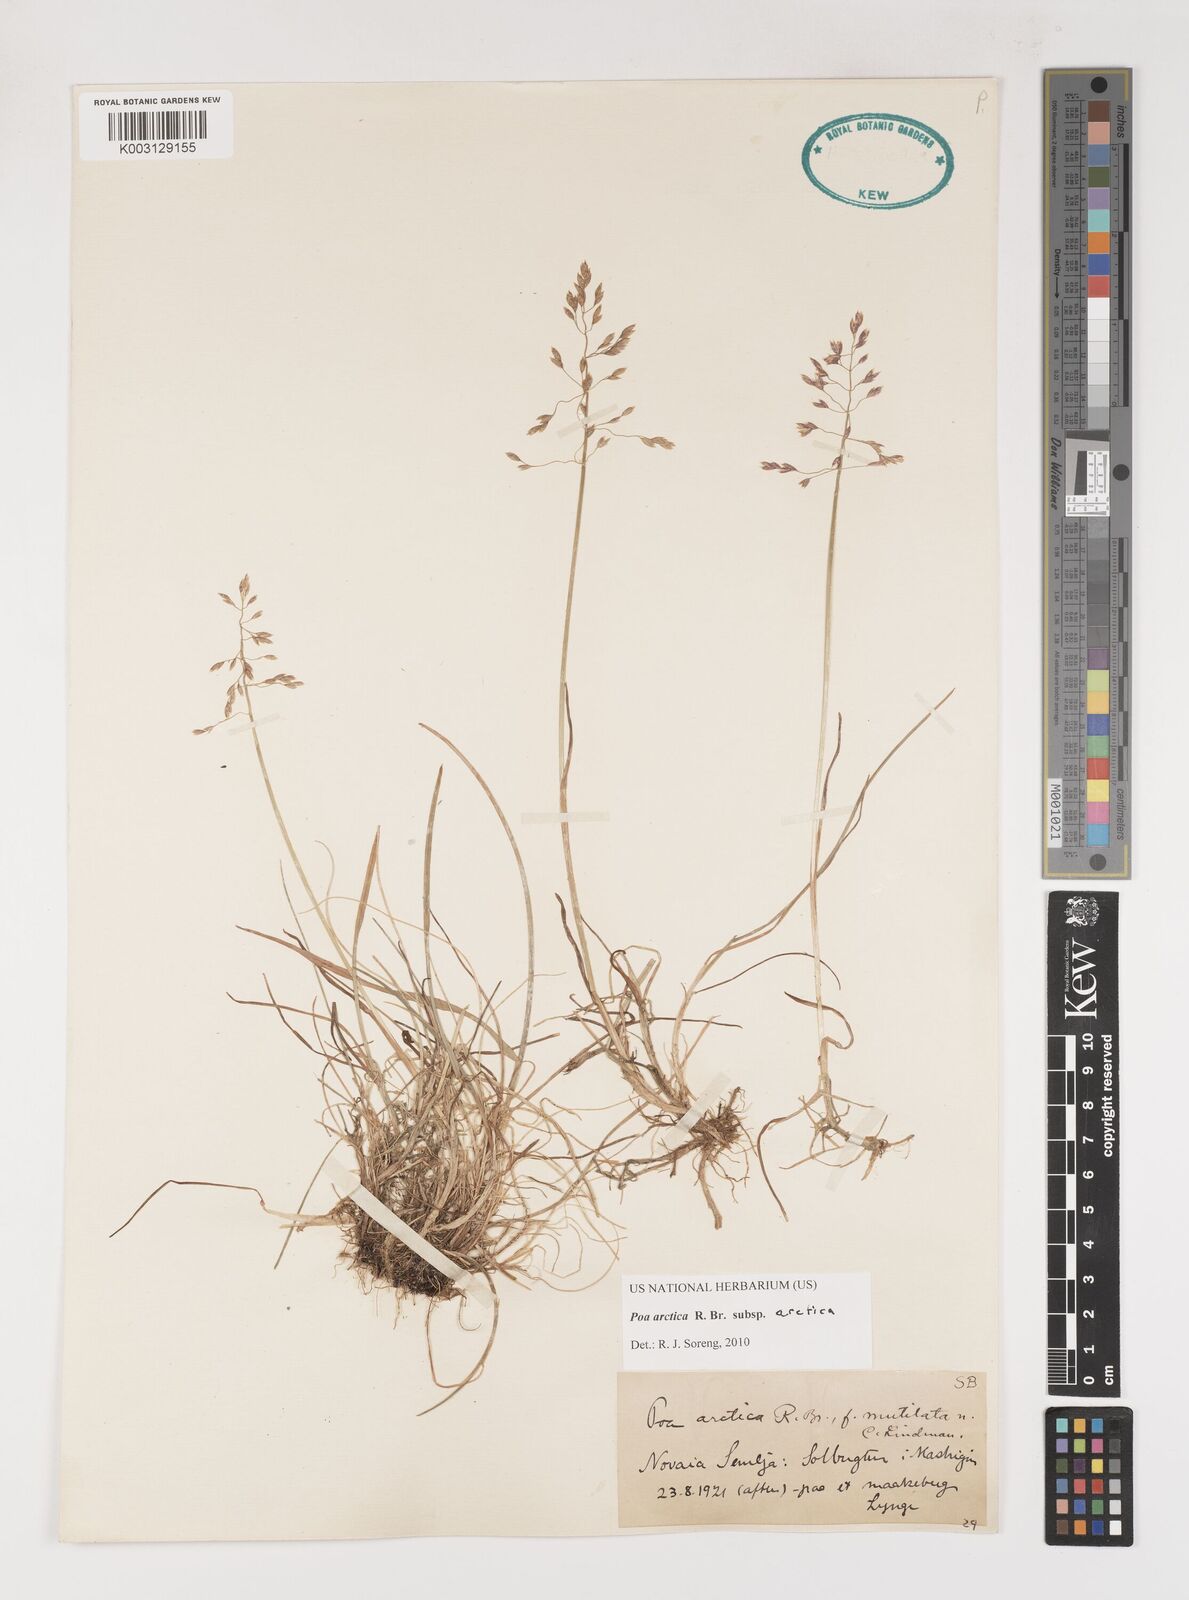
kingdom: Plantae
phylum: Tracheophyta
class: Liliopsida
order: Poales
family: Poaceae
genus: Poa
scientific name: Poa arctica
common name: Arctic bluegrass
